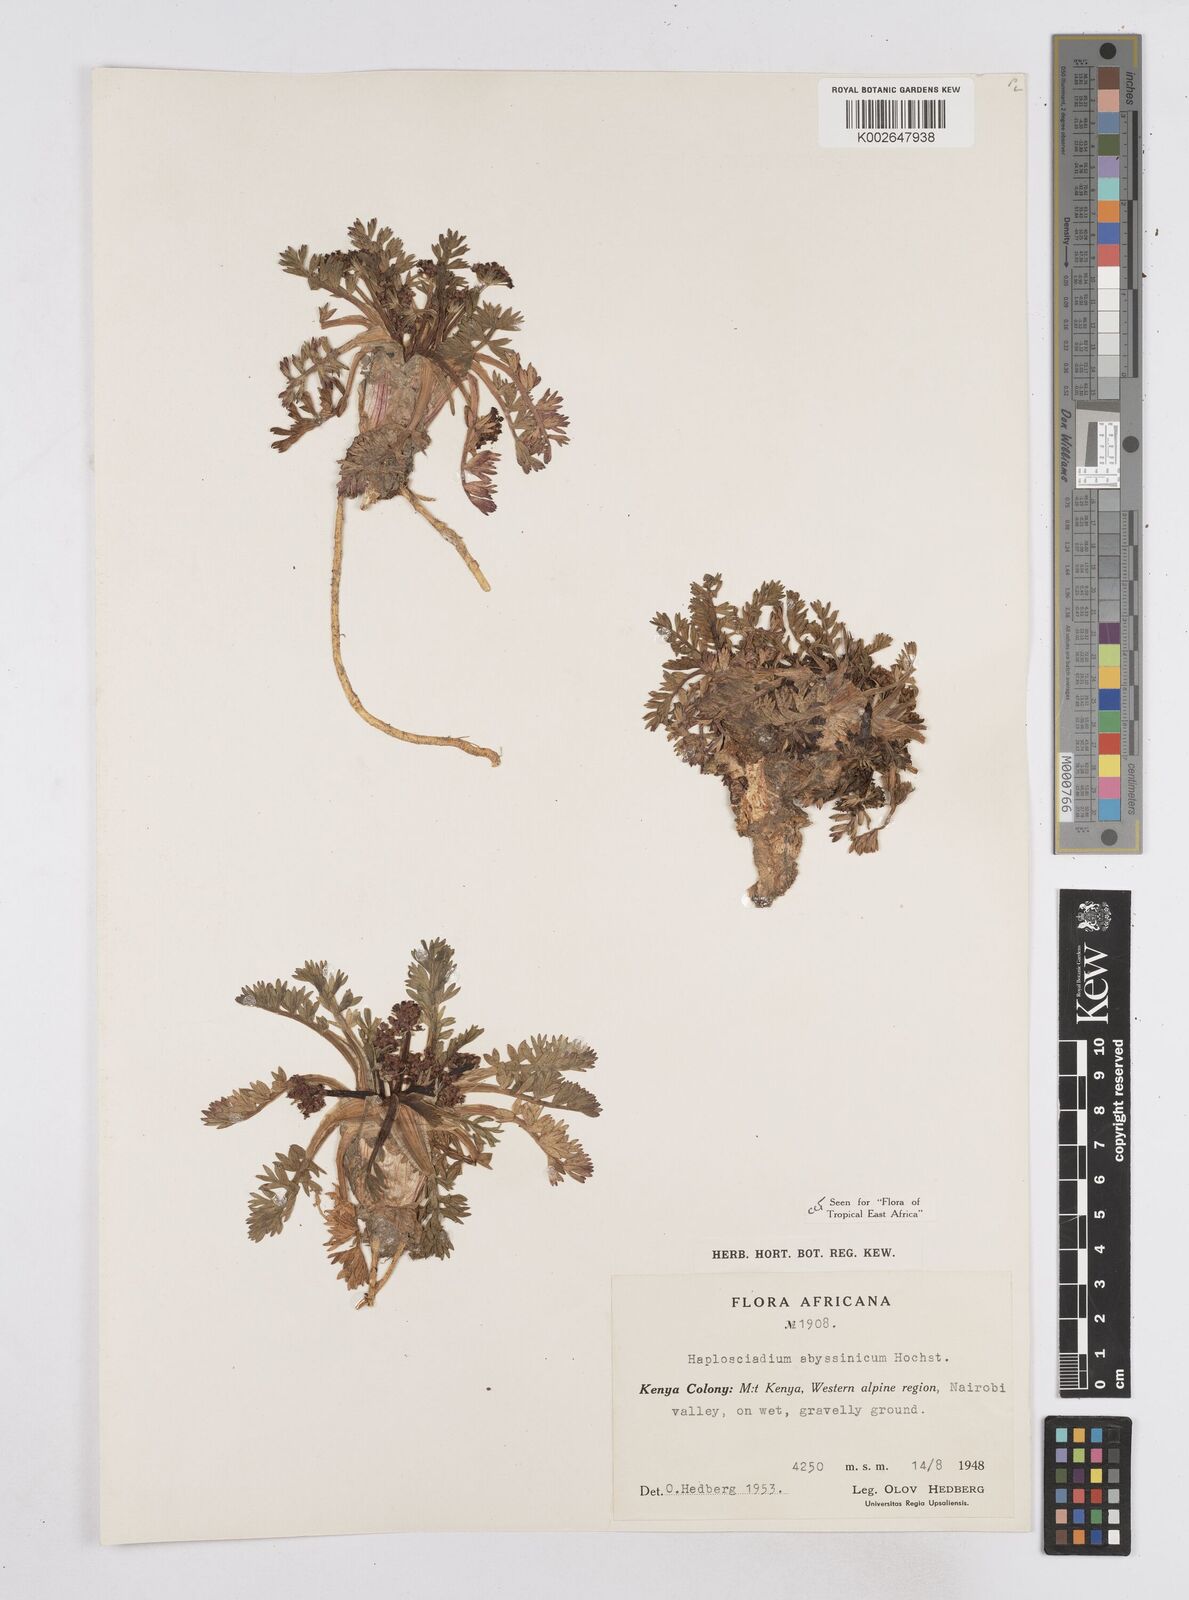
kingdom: Plantae
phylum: Tracheophyta
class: Magnoliopsida
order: Apiales
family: Apiaceae
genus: Haplosciadium
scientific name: Haplosciadium abyssinicum
